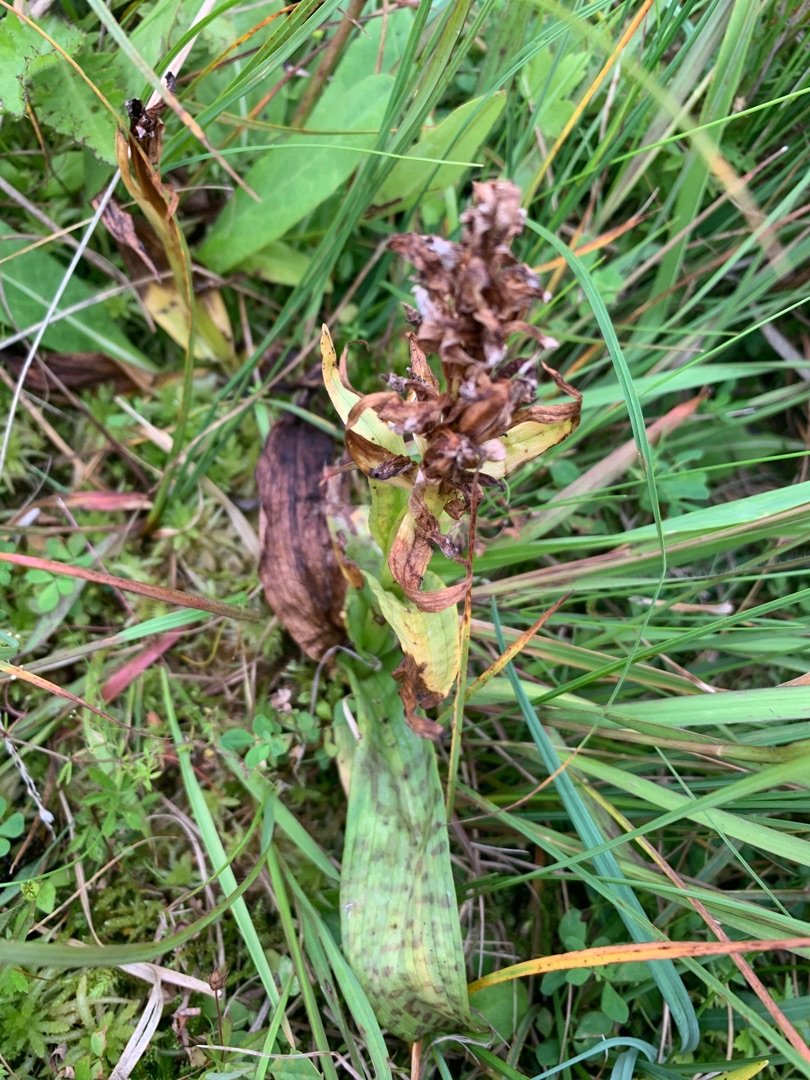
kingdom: Plantae
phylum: Tracheophyta
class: Liliopsida
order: Asparagales
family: Orchidaceae
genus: Dactylorhiza
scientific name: Dactylorhiza majalis
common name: Maj-gøgeurt
